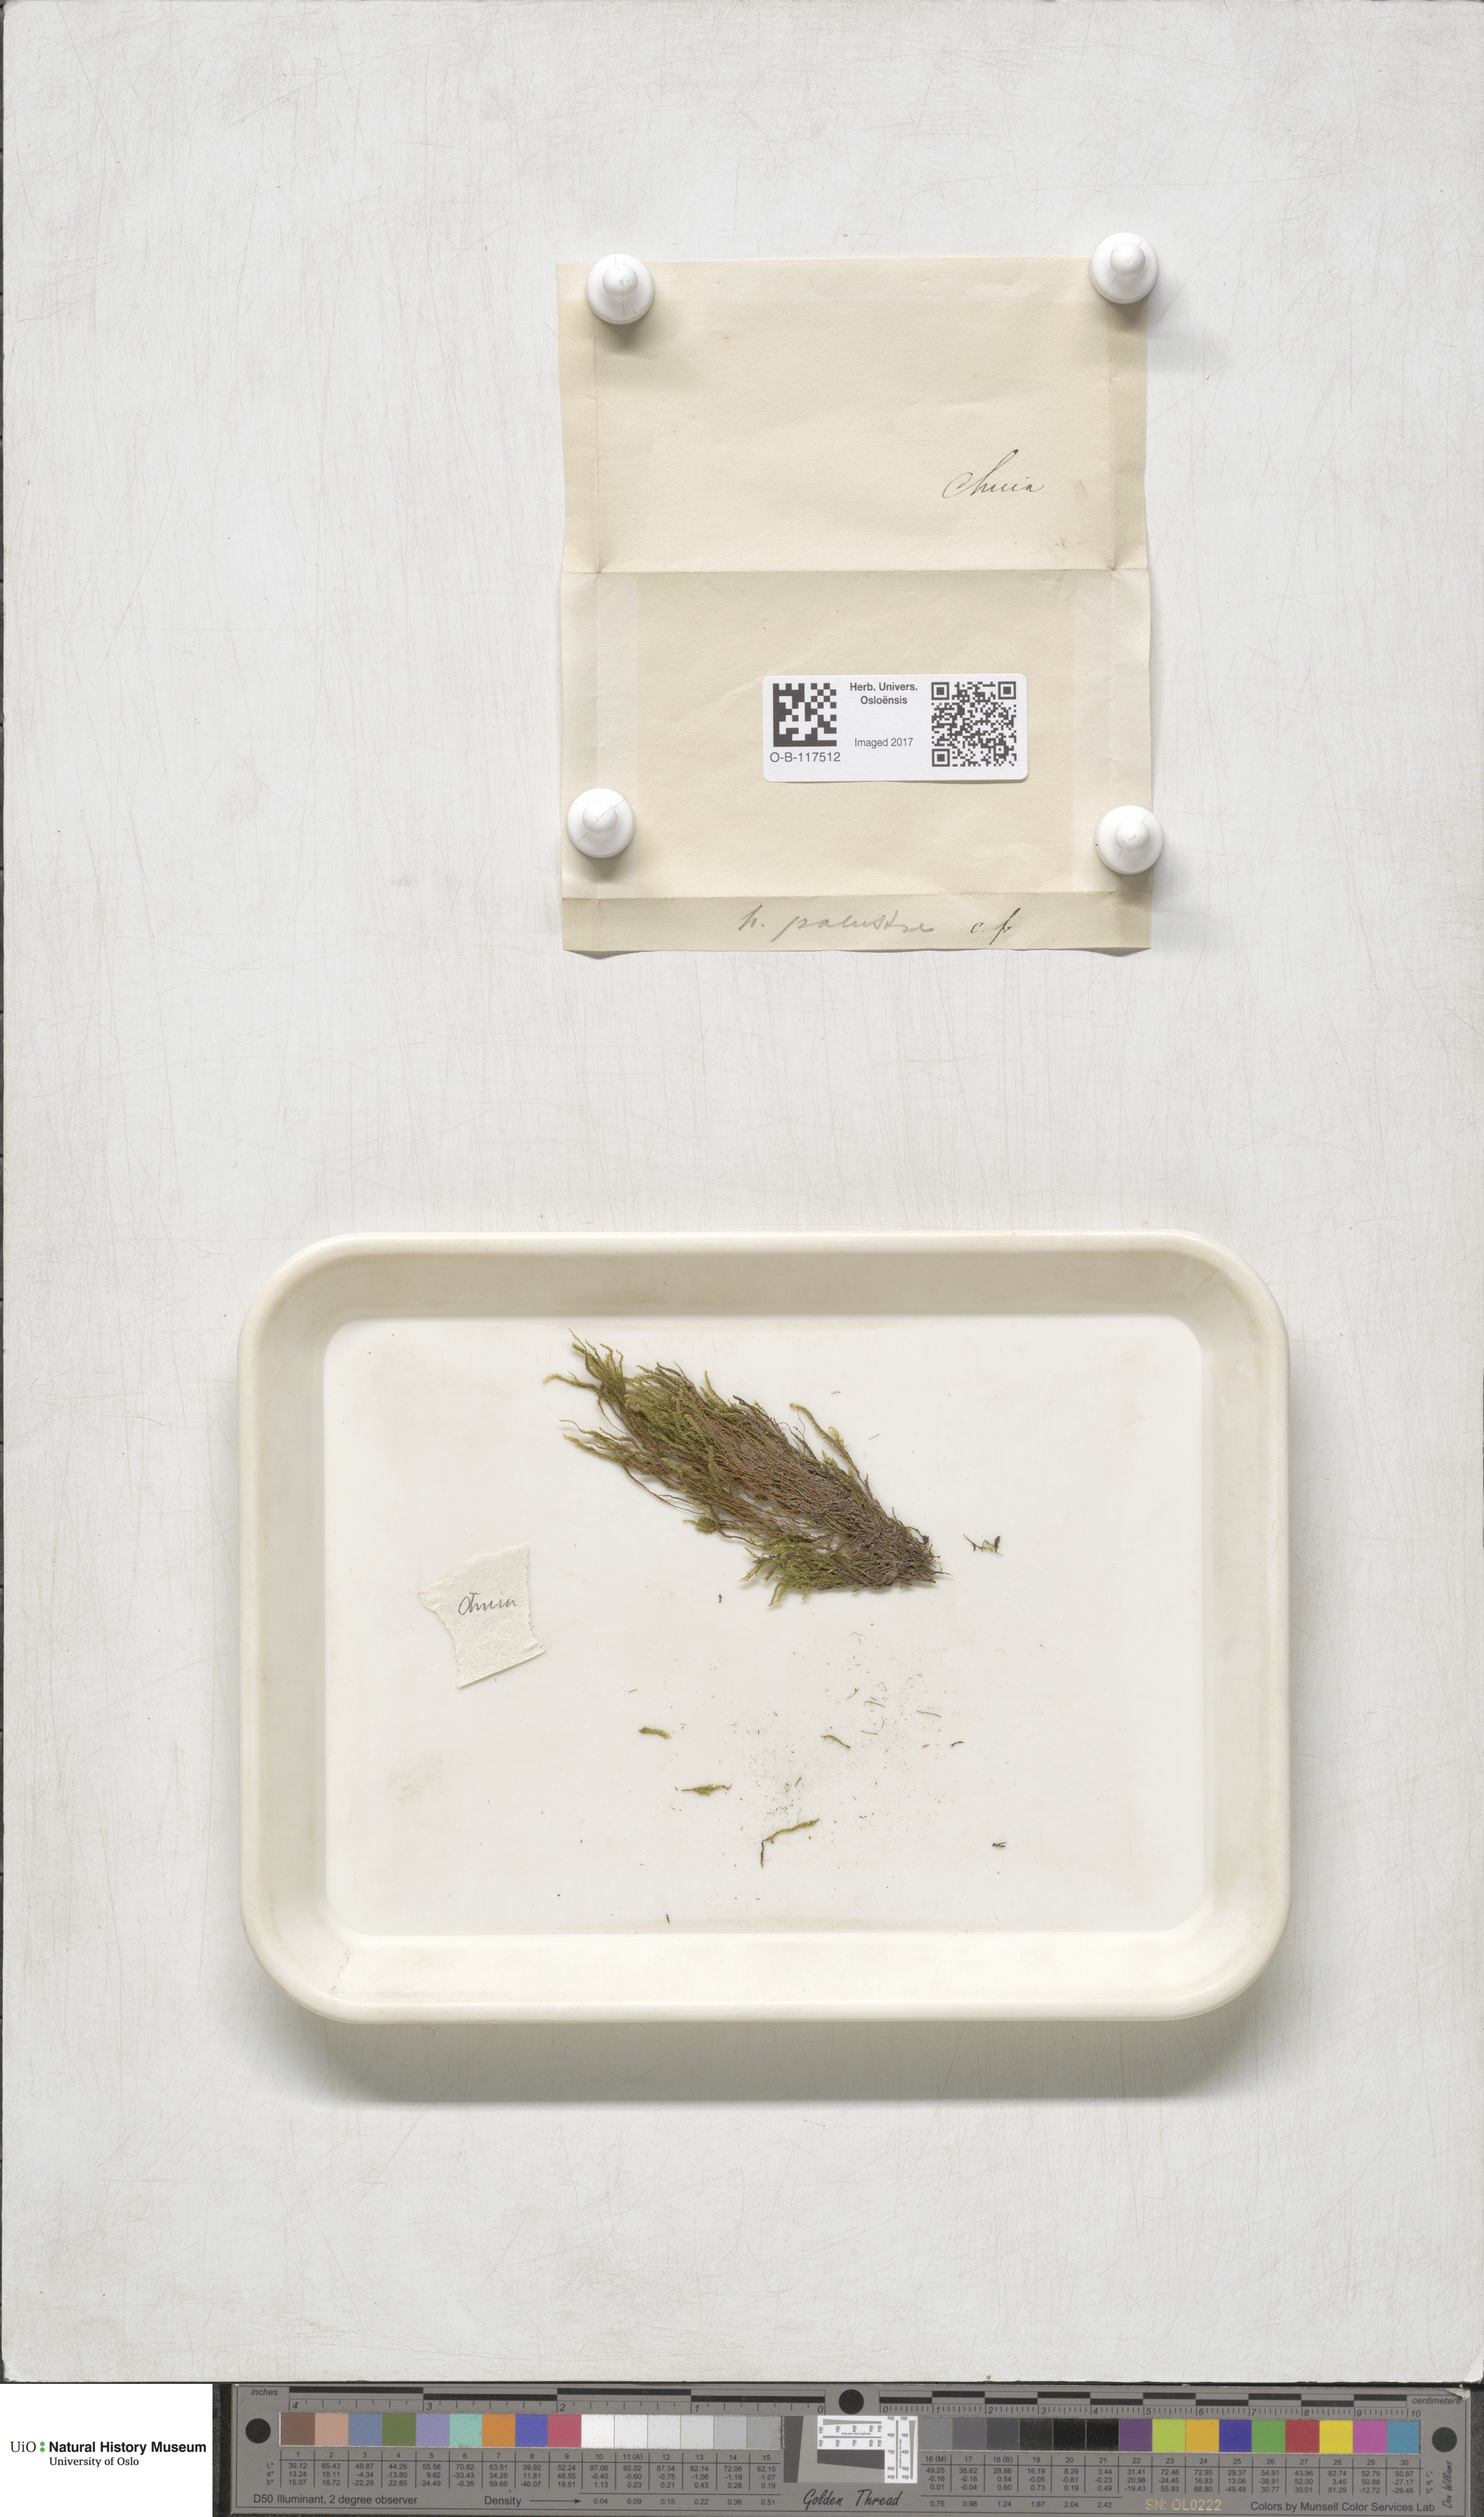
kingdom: Plantae
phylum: Bryophyta
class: Bryopsida
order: Hypnales
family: Amblystegiaceae
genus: Hygrohypnum
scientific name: Hygrohypnum luridum
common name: Drab brook moss
